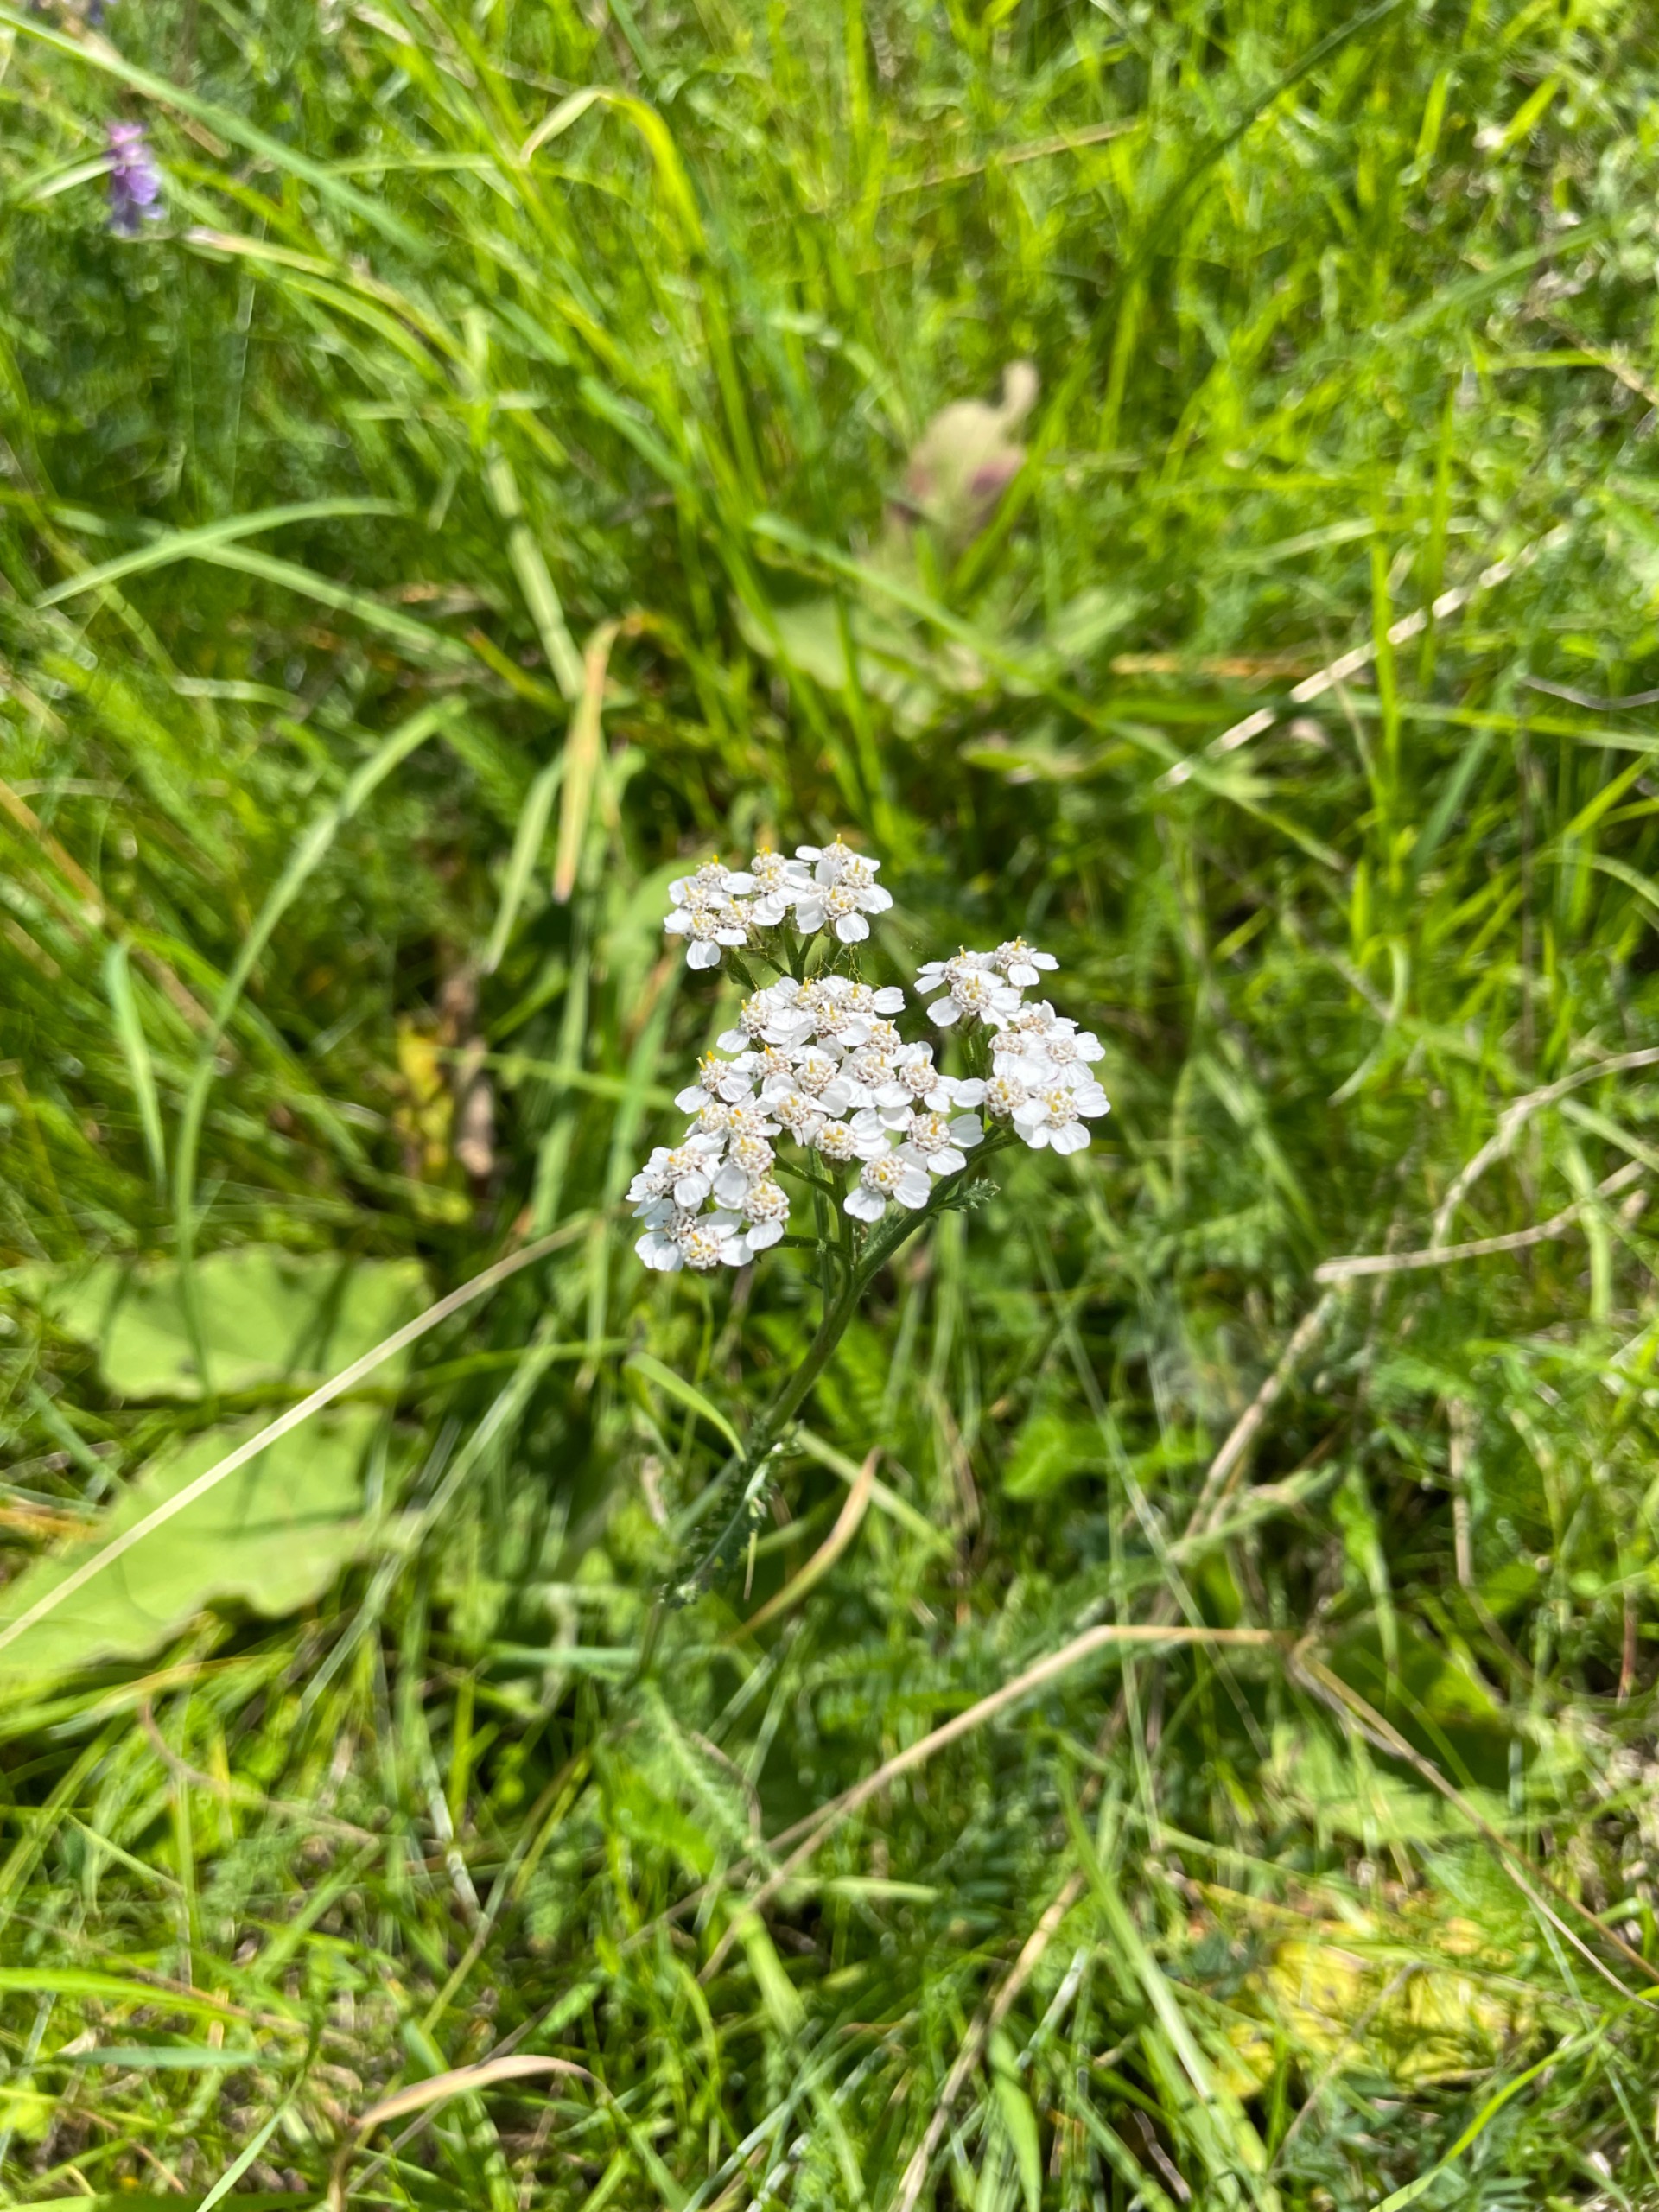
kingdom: Plantae
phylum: Tracheophyta
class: Magnoliopsida
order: Asterales
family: Asteraceae
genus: Achillea
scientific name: Achillea millefolium
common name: Almindelig røllike
